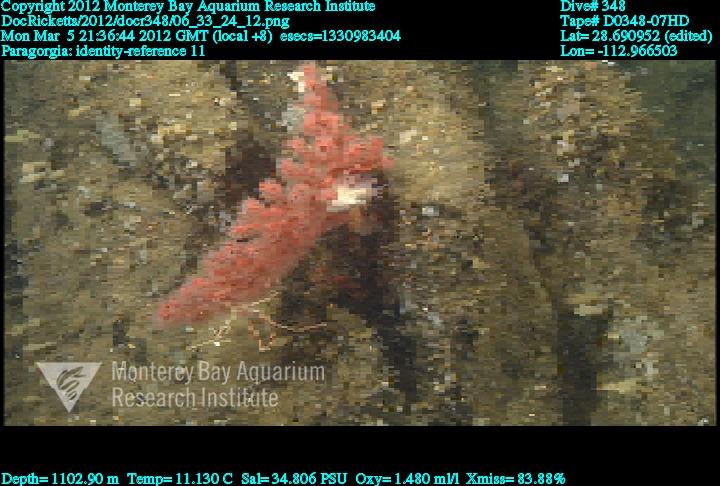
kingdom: Animalia
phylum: Cnidaria
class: Anthozoa
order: Scleralcyonacea
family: Coralliidae
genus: Paragorgia
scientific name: Paragorgia
